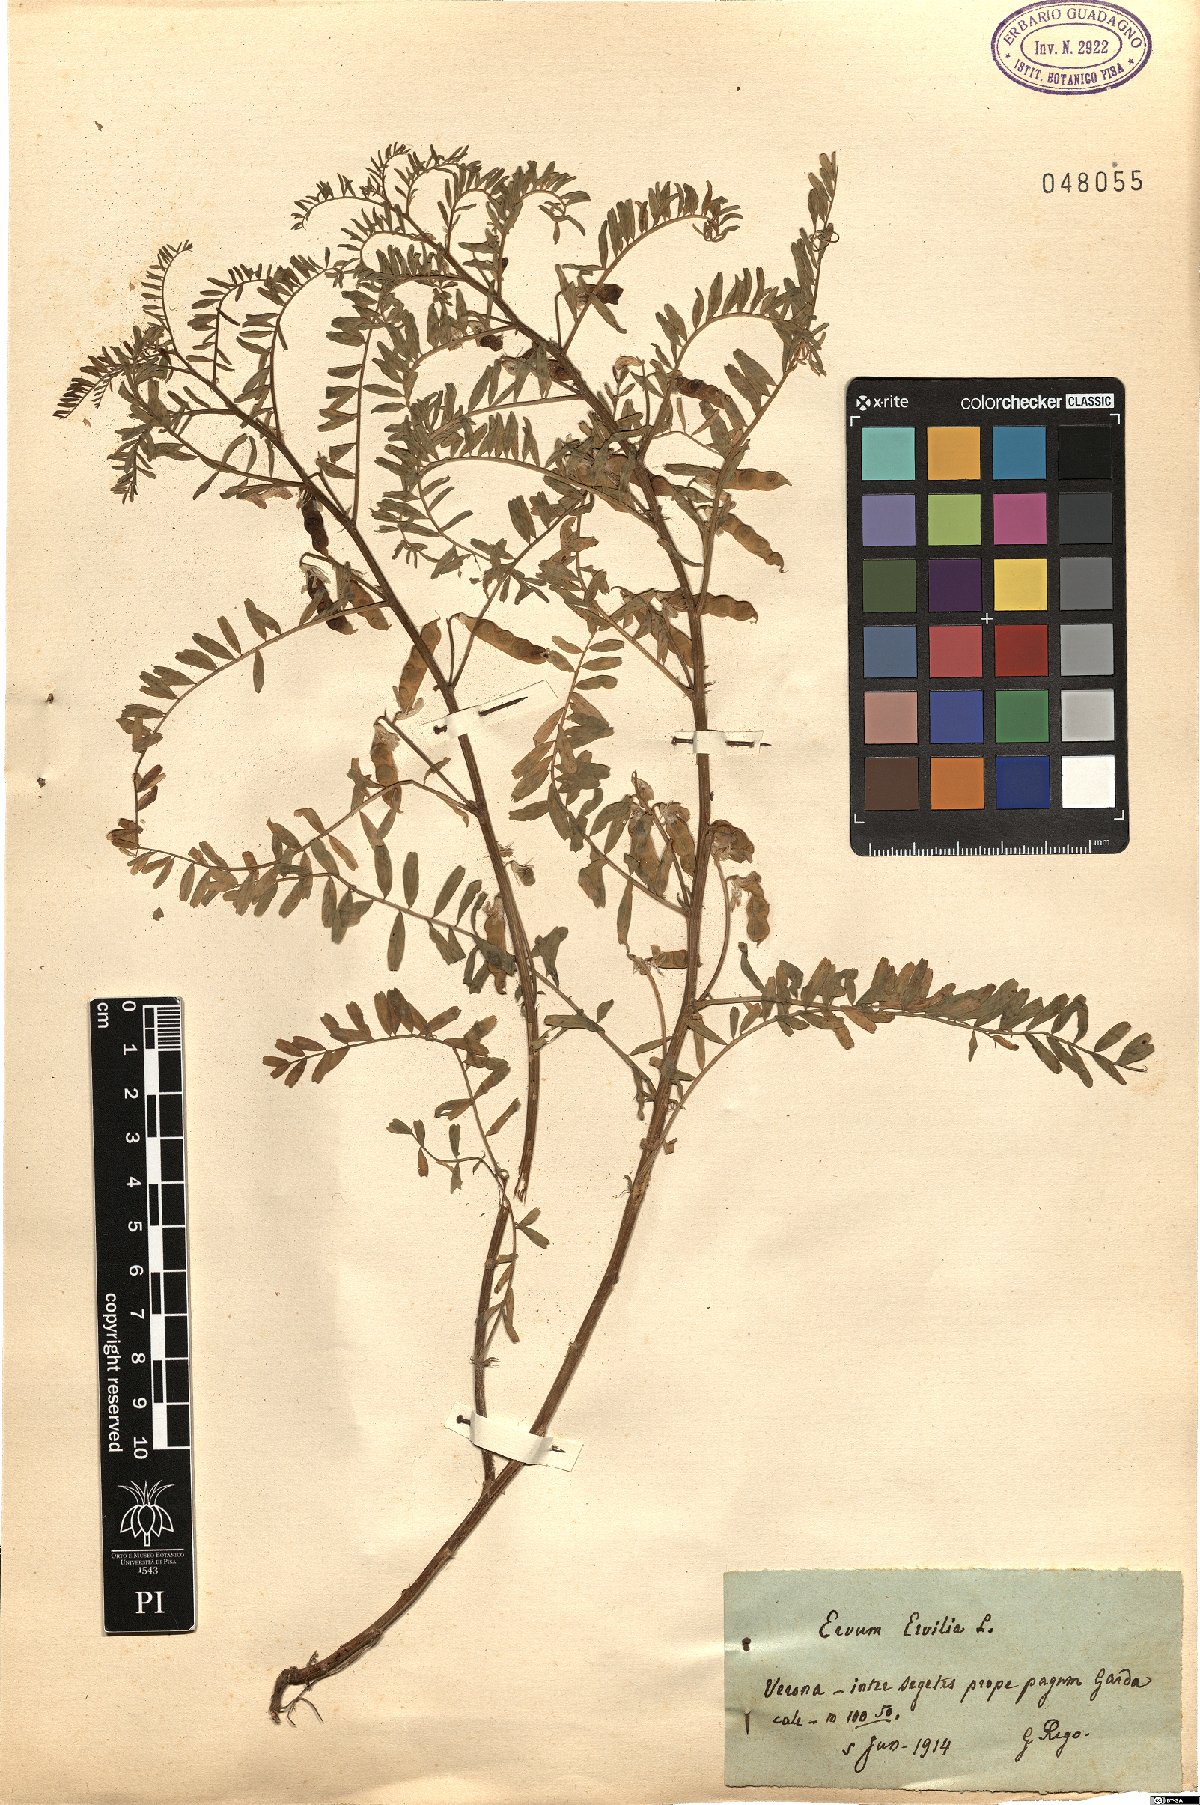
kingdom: Plantae
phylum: Tracheophyta
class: Magnoliopsida
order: Fabales
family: Fabaceae
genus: Vicia
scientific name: Vicia ervilia
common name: Bitter vetch
